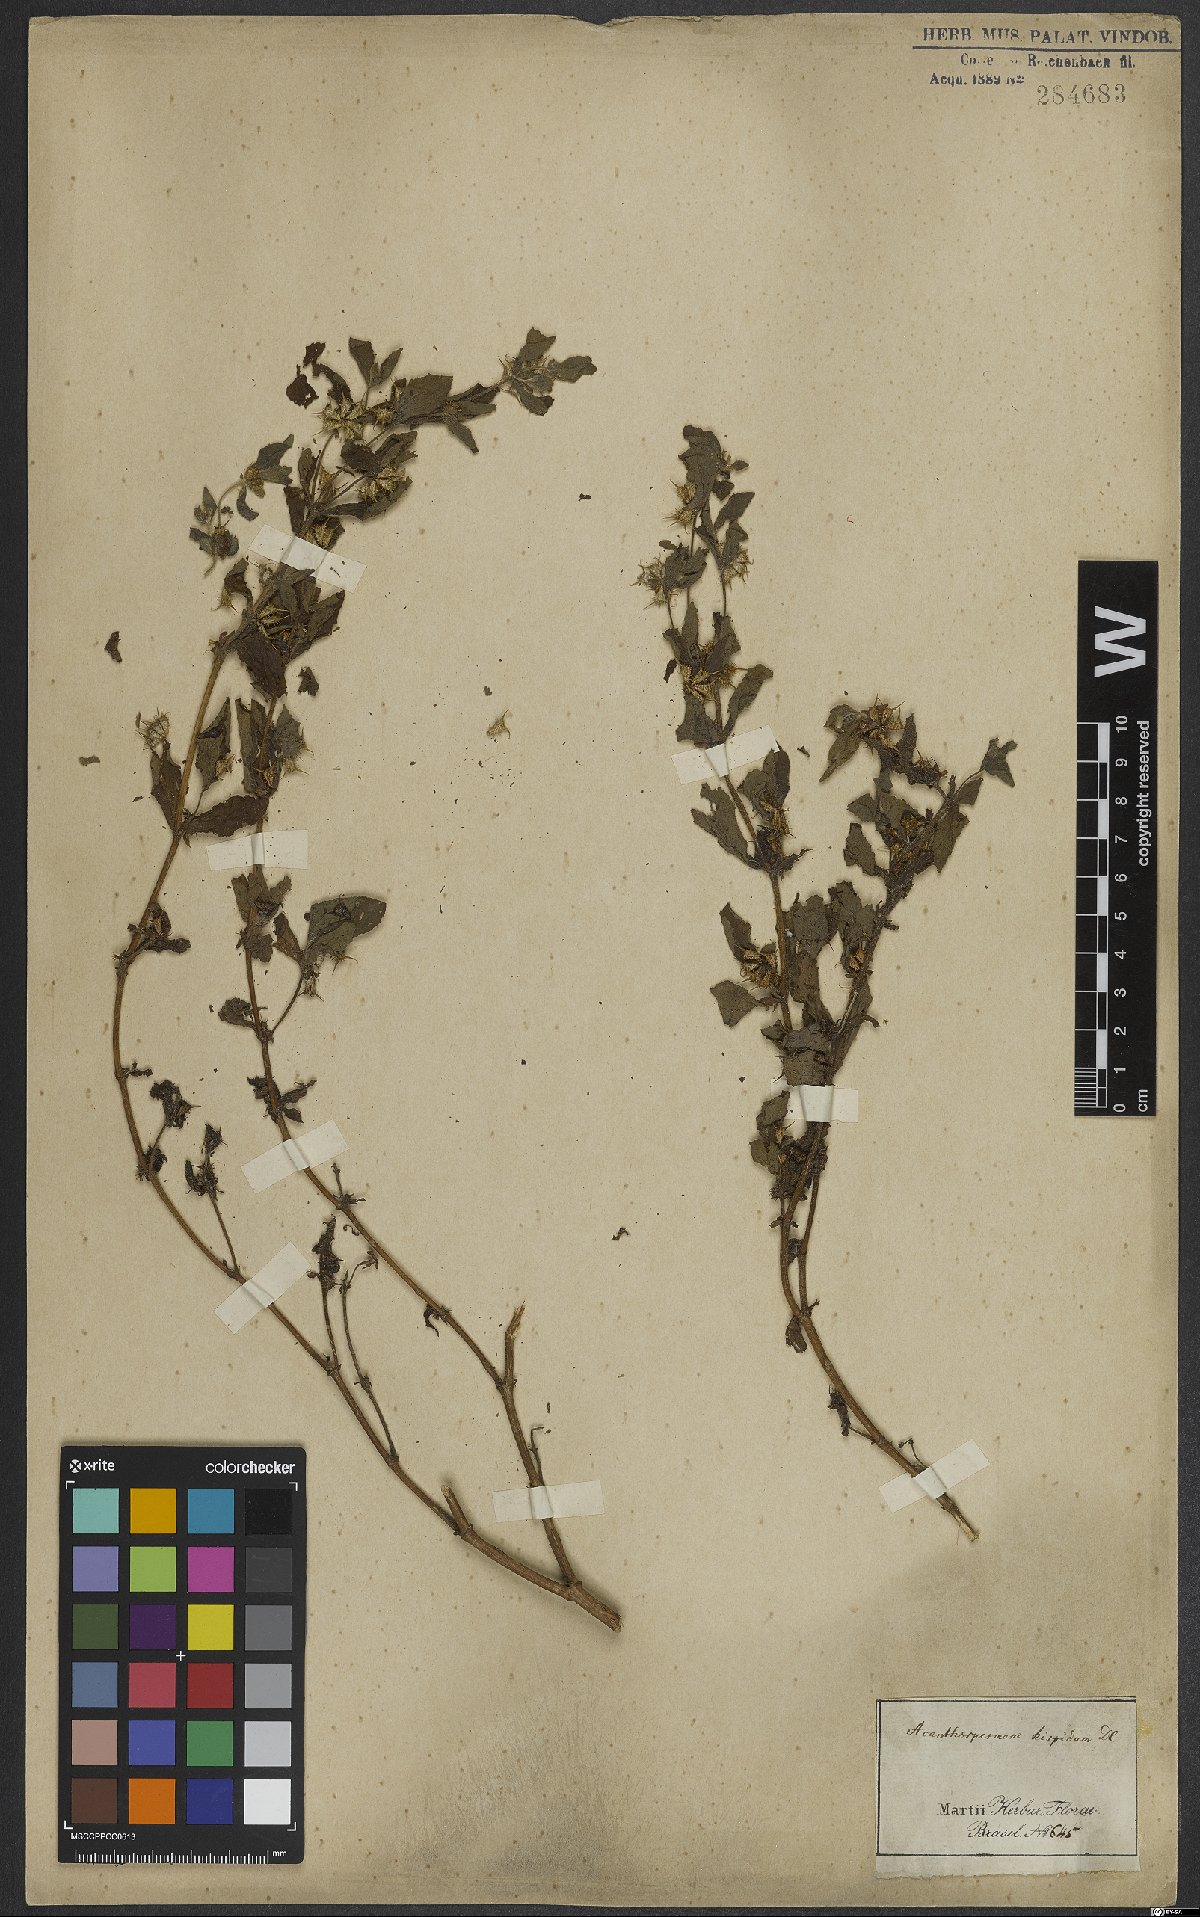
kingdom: Plantae
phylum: Tracheophyta
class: Magnoliopsida
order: Asterales
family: Asteraceae
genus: Acanthospermum
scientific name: Acanthospermum hispidum
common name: Hispid starbur
